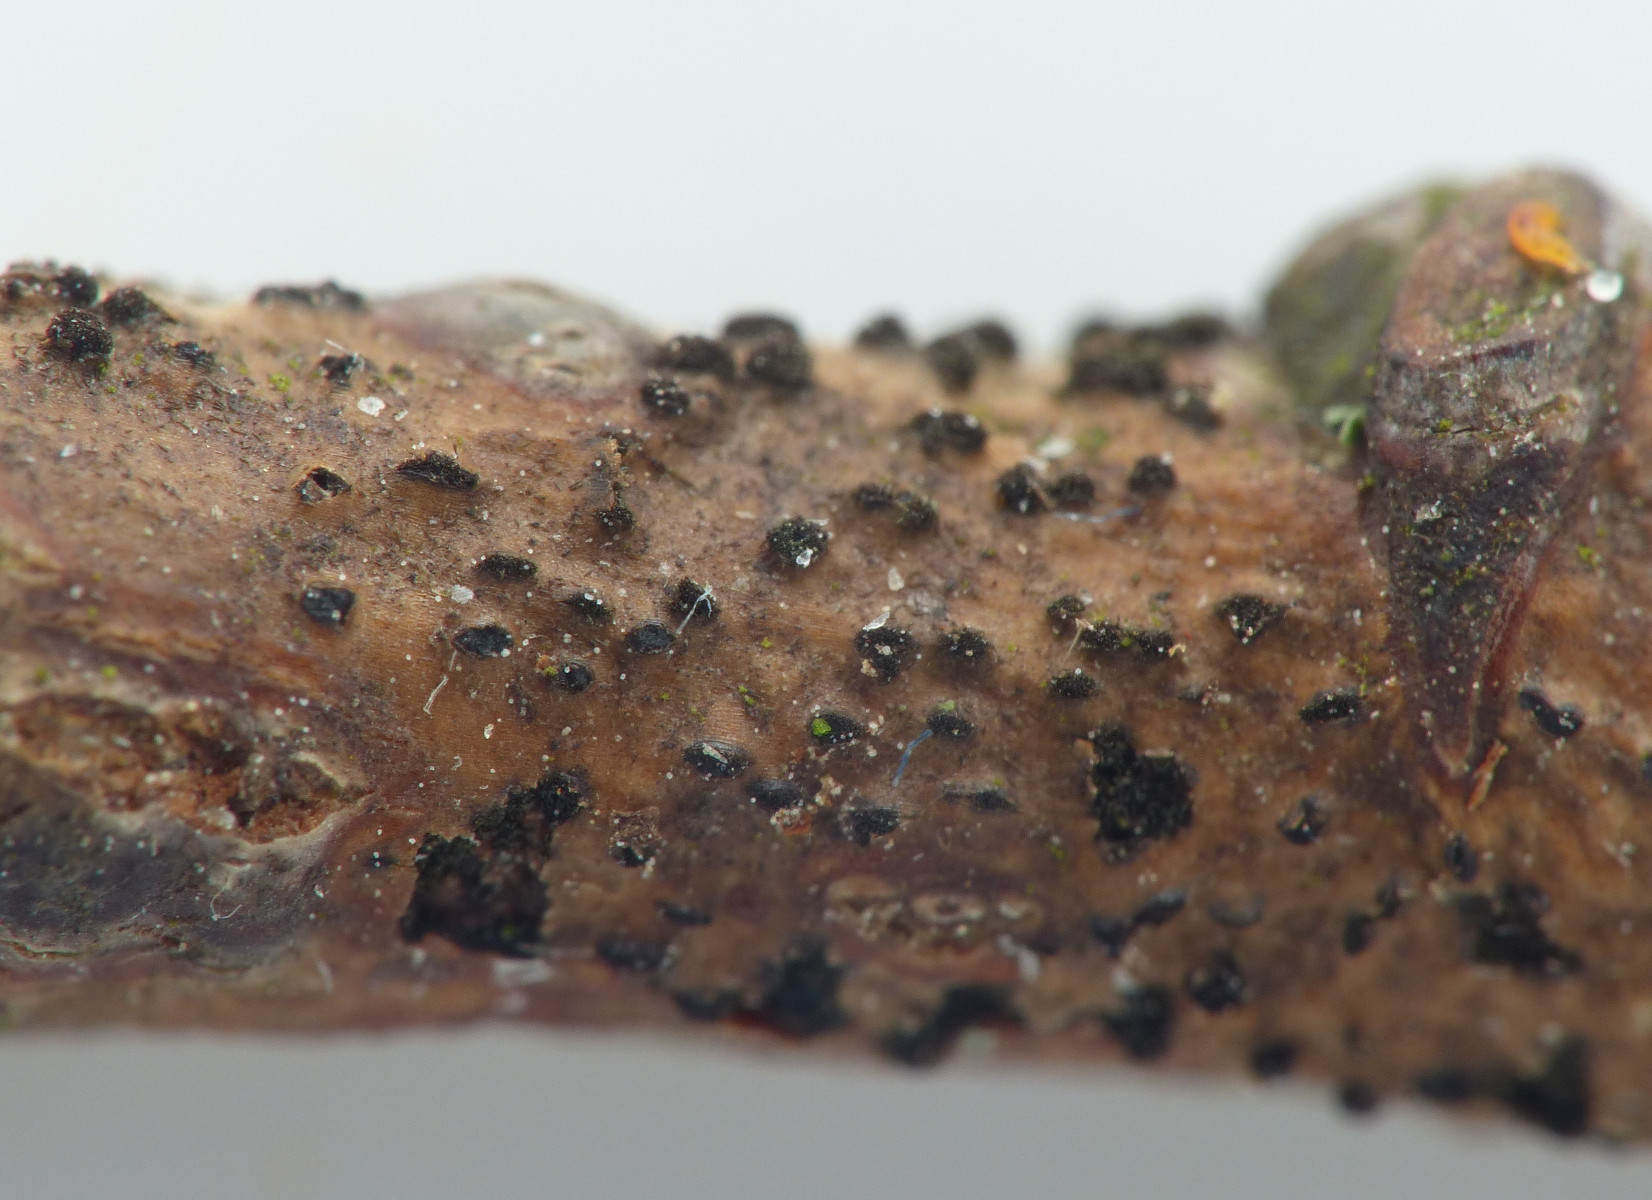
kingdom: Fungi
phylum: Ascomycota
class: Dothideomycetes
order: Pleosporales
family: Massarinaceae
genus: Helminthosporium
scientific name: Helminthosporium oligosporum
